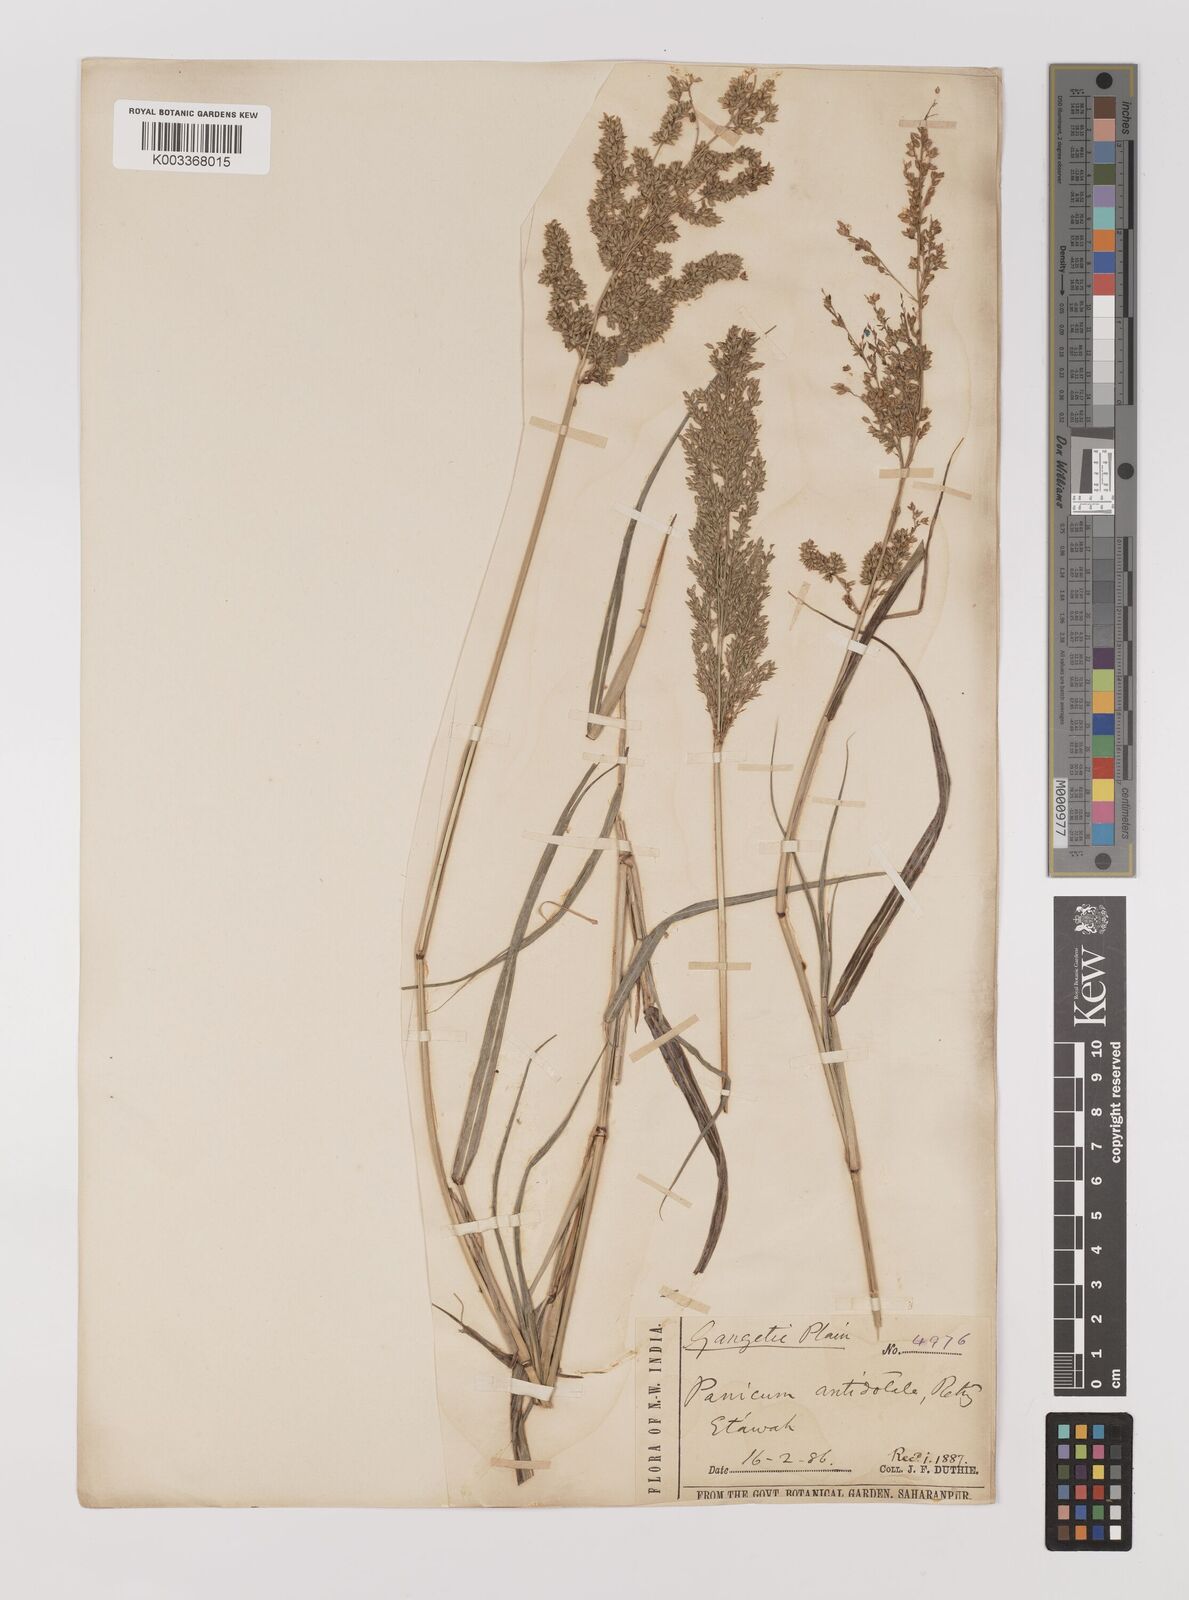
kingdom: Plantae
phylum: Tracheophyta
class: Liliopsida
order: Poales
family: Poaceae
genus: Panicum
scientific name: Panicum antidotale
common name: Blue panicum
